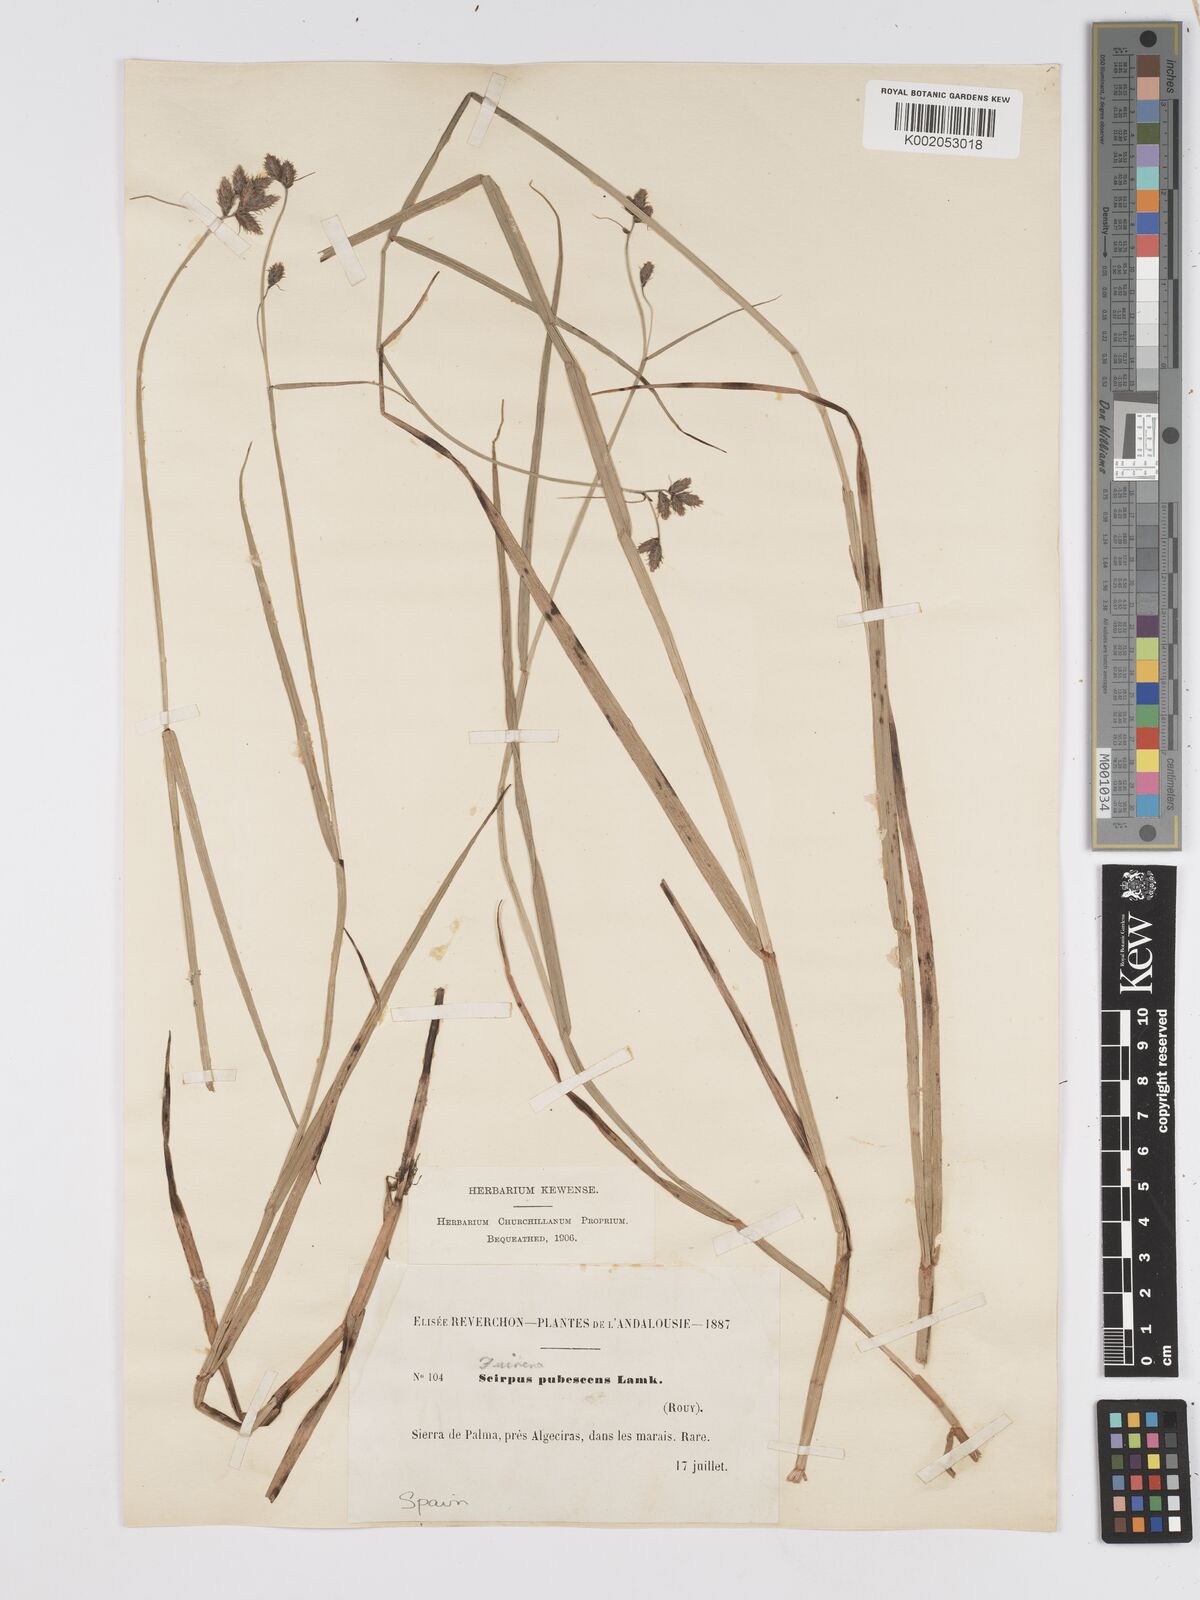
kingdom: Plantae
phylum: Tracheophyta
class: Liliopsida
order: Poales
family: Cyperaceae
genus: Fuirena
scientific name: Fuirena pubescens
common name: Hairy sedge
